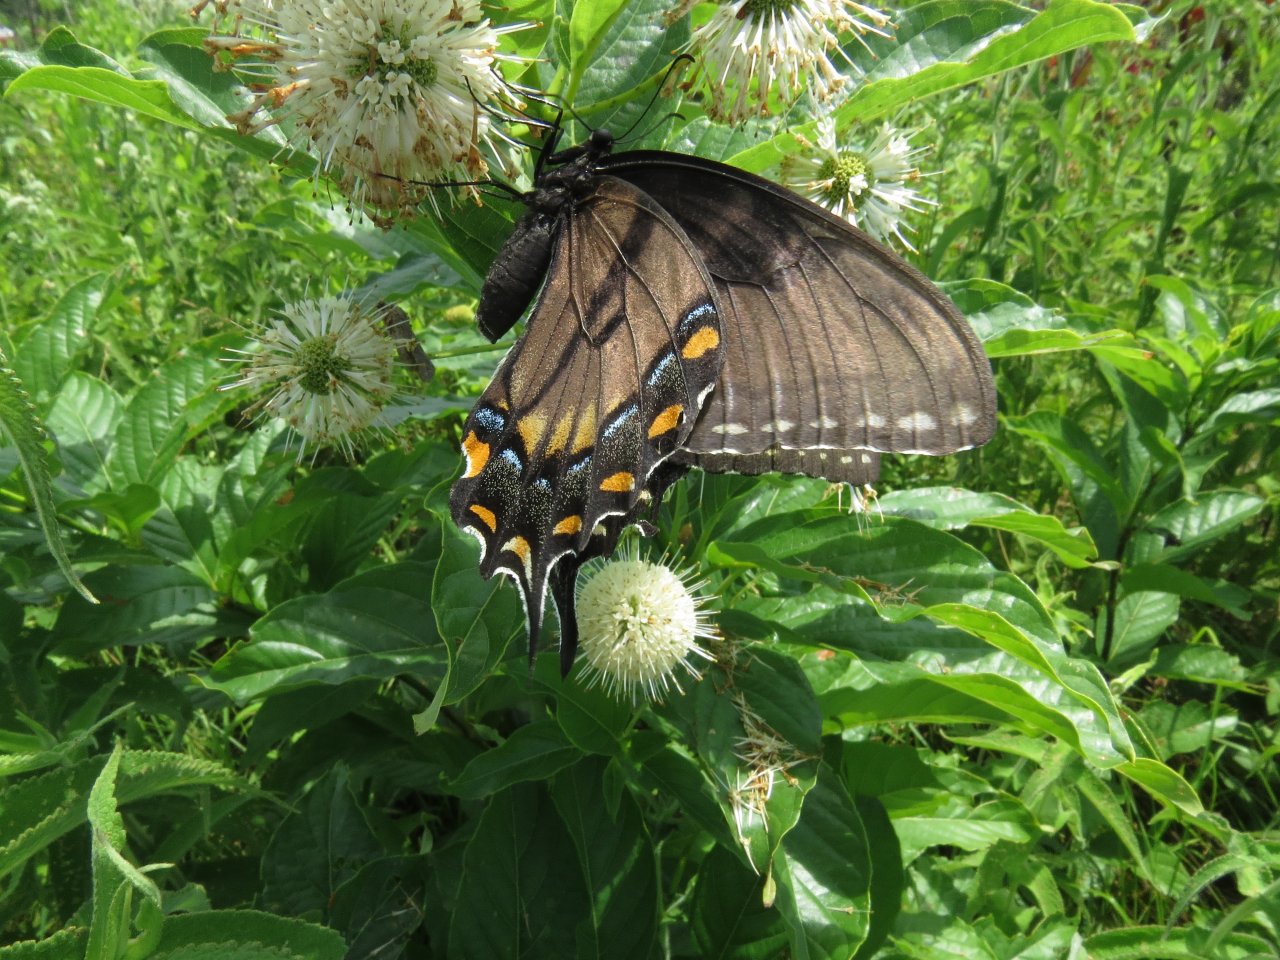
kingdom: Animalia
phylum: Arthropoda
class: Insecta
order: Lepidoptera
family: Papilionidae
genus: Pterourus
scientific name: Pterourus glaucus
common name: Eastern Tiger Swallowtail
